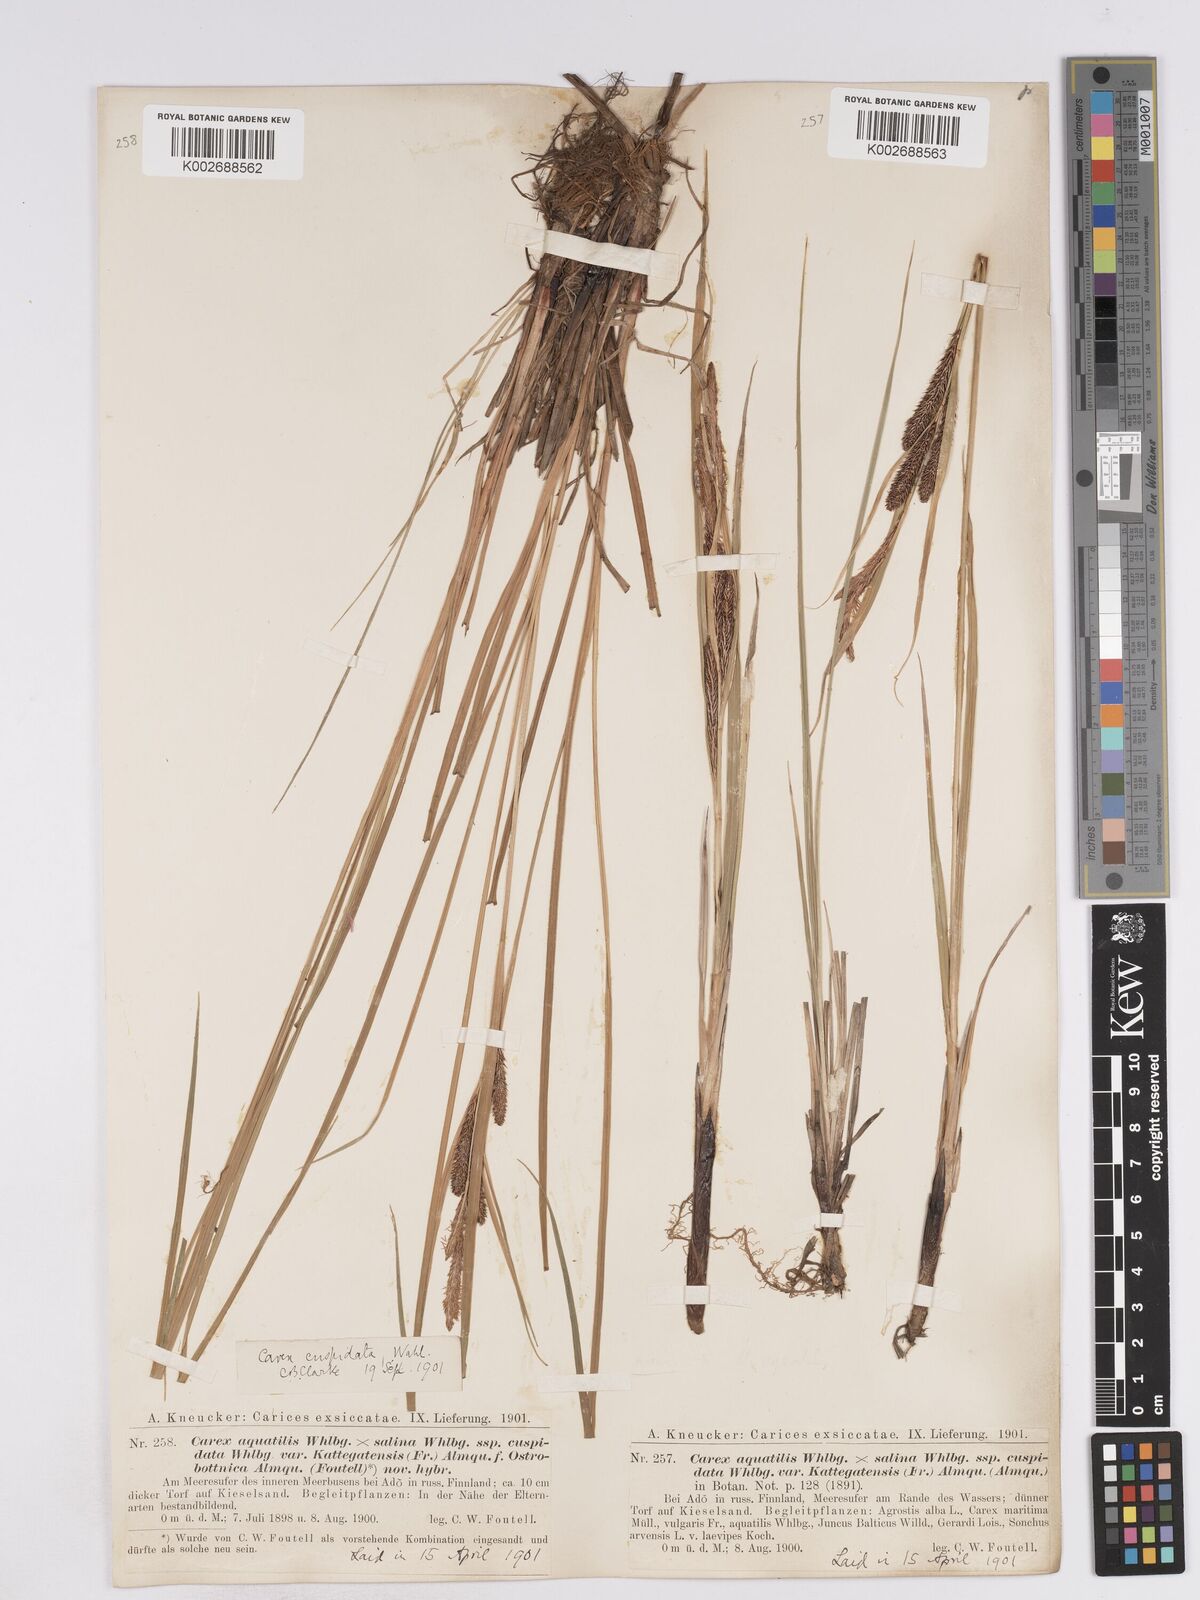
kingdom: Plantae
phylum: Tracheophyta
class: Liliopsida
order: Poales
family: Cyperaceae
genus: Carex
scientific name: Carex recta
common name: Estuarine sedge
